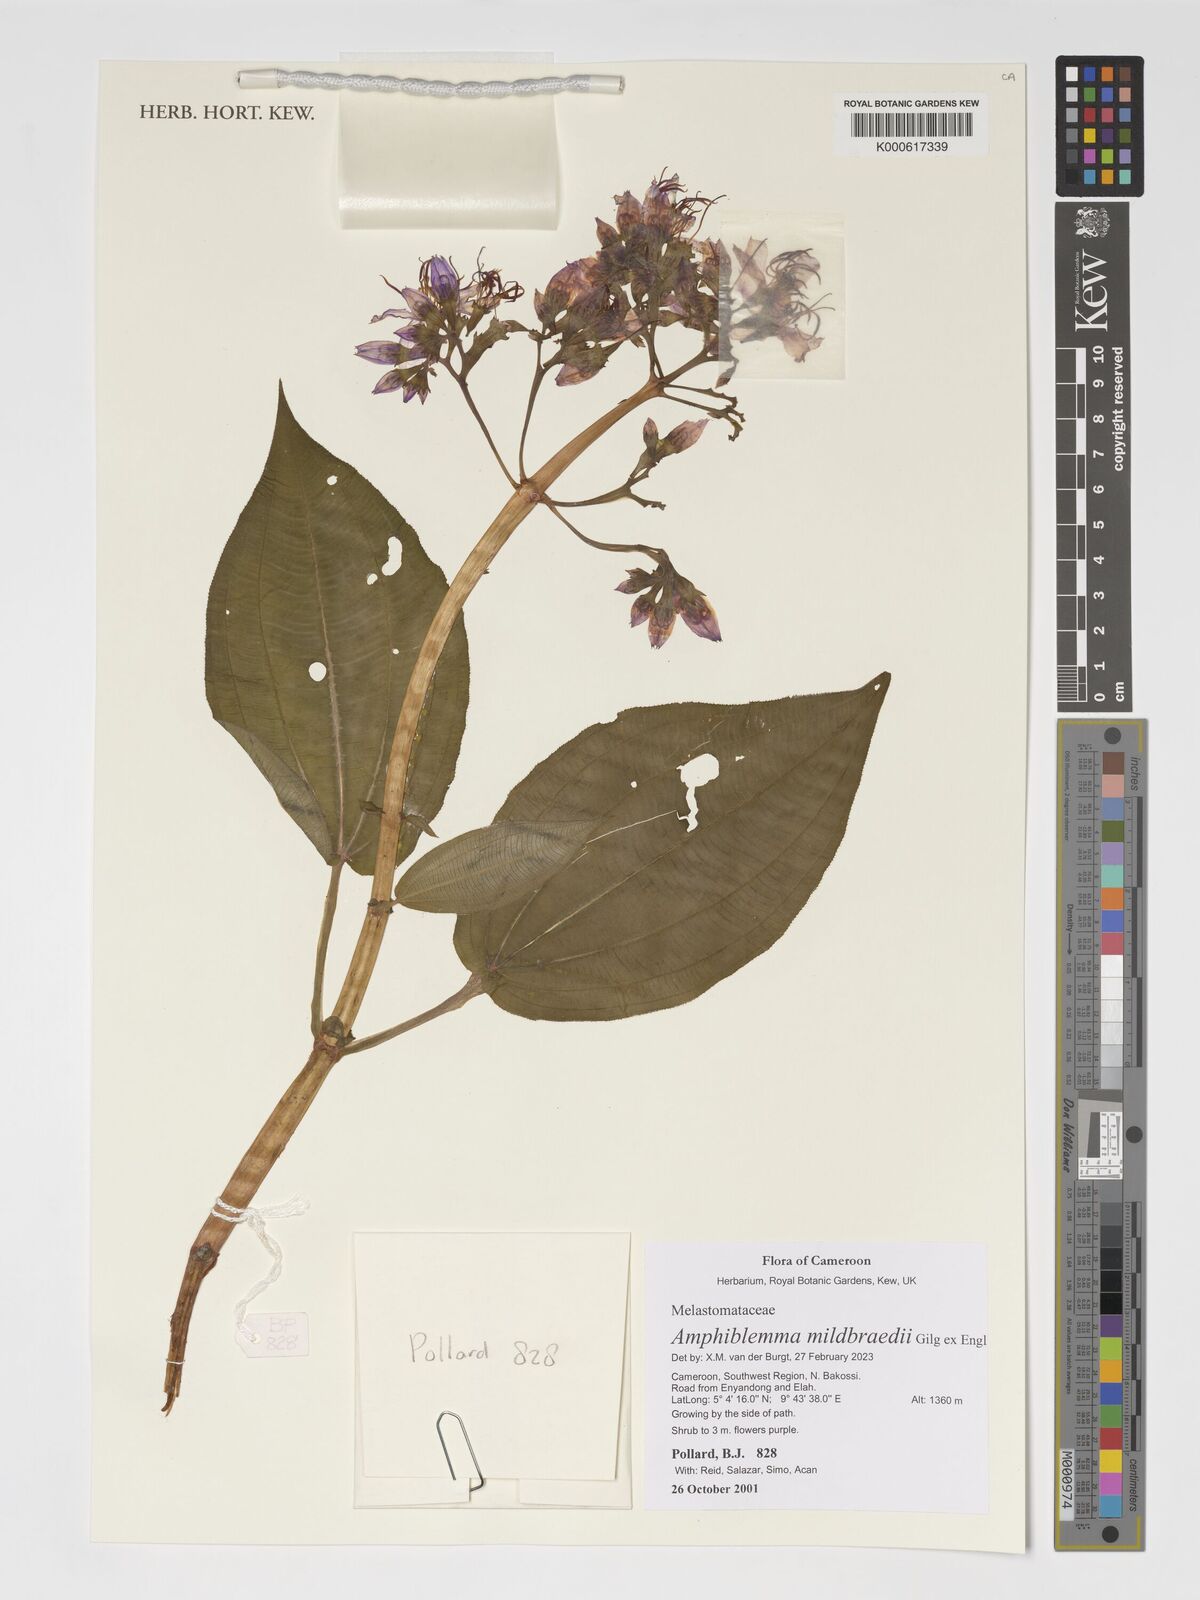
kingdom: Plantae
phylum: Tracheophyta
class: Magnoliopsida
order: Myrtales
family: Melastomataceae
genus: Amphiblemma
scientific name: Amphiblemma mildbraedii
